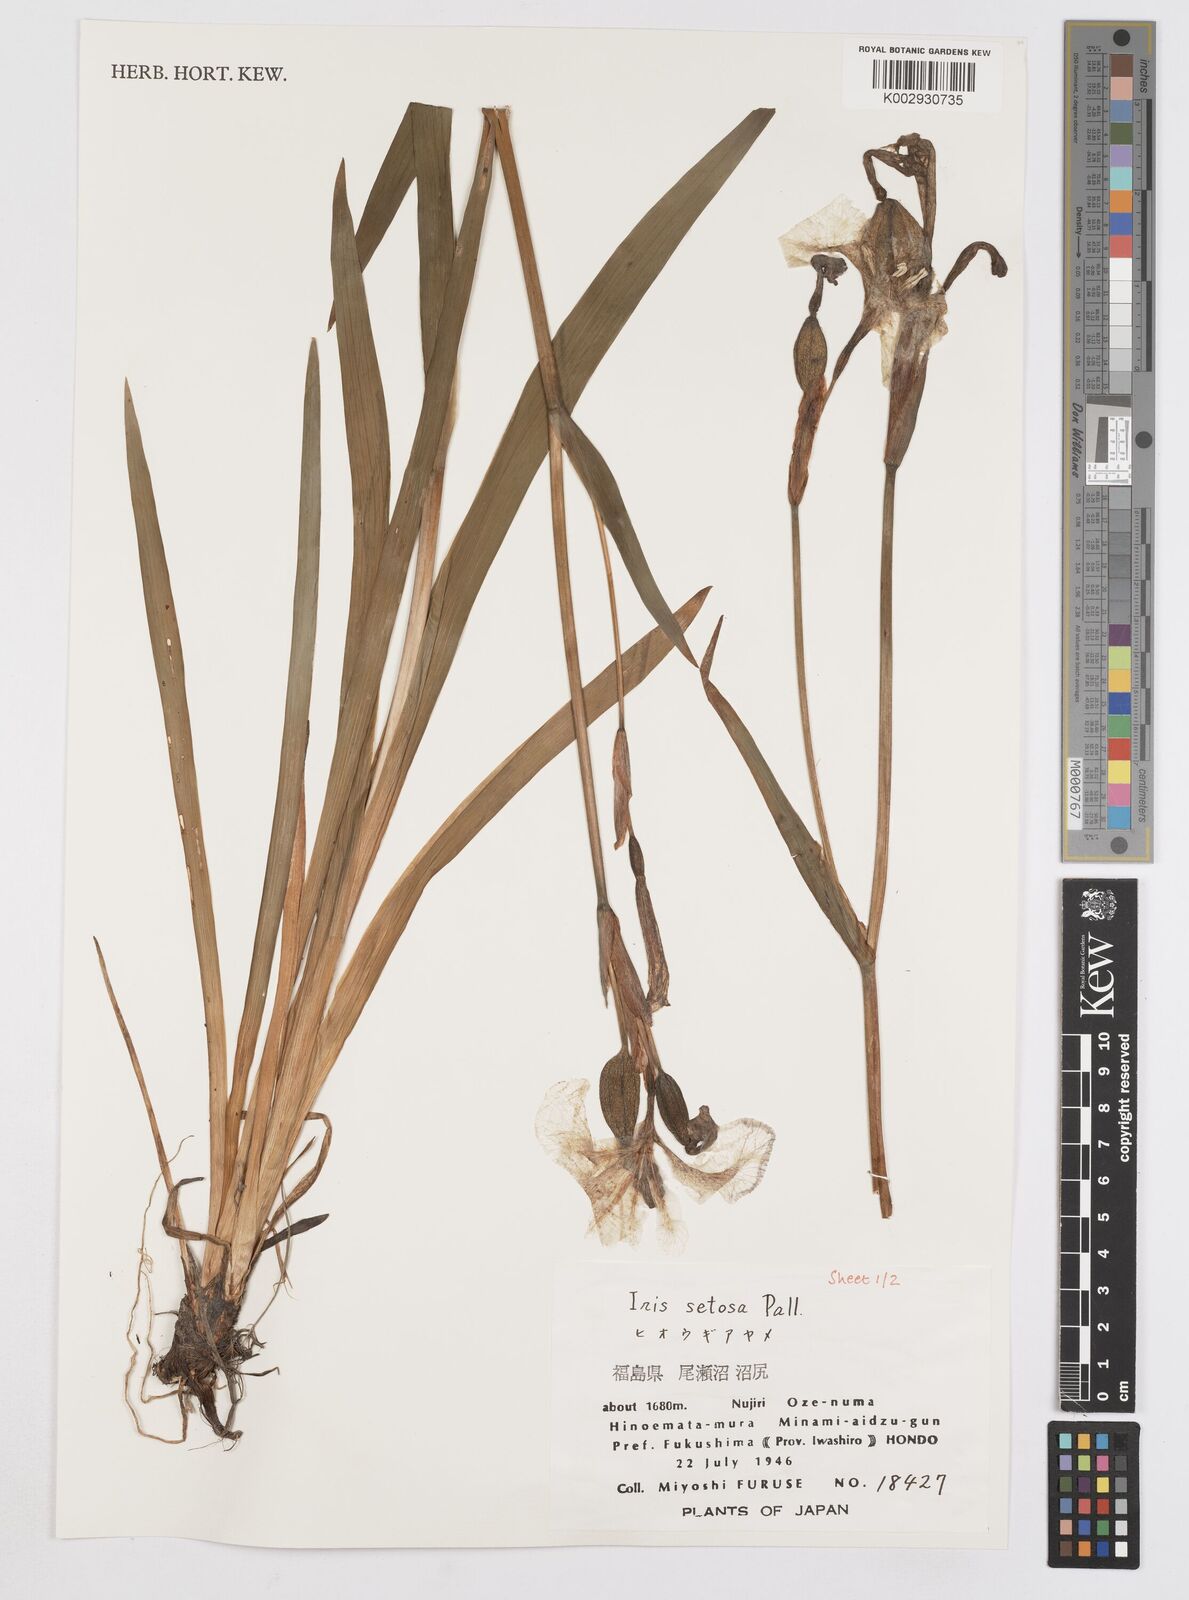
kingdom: Plantae
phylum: Tracheophyta
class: Liliopsida
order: Asparagales
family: Iridaceae
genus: Iris
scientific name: Iris setosa
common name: Arctic blue flag
